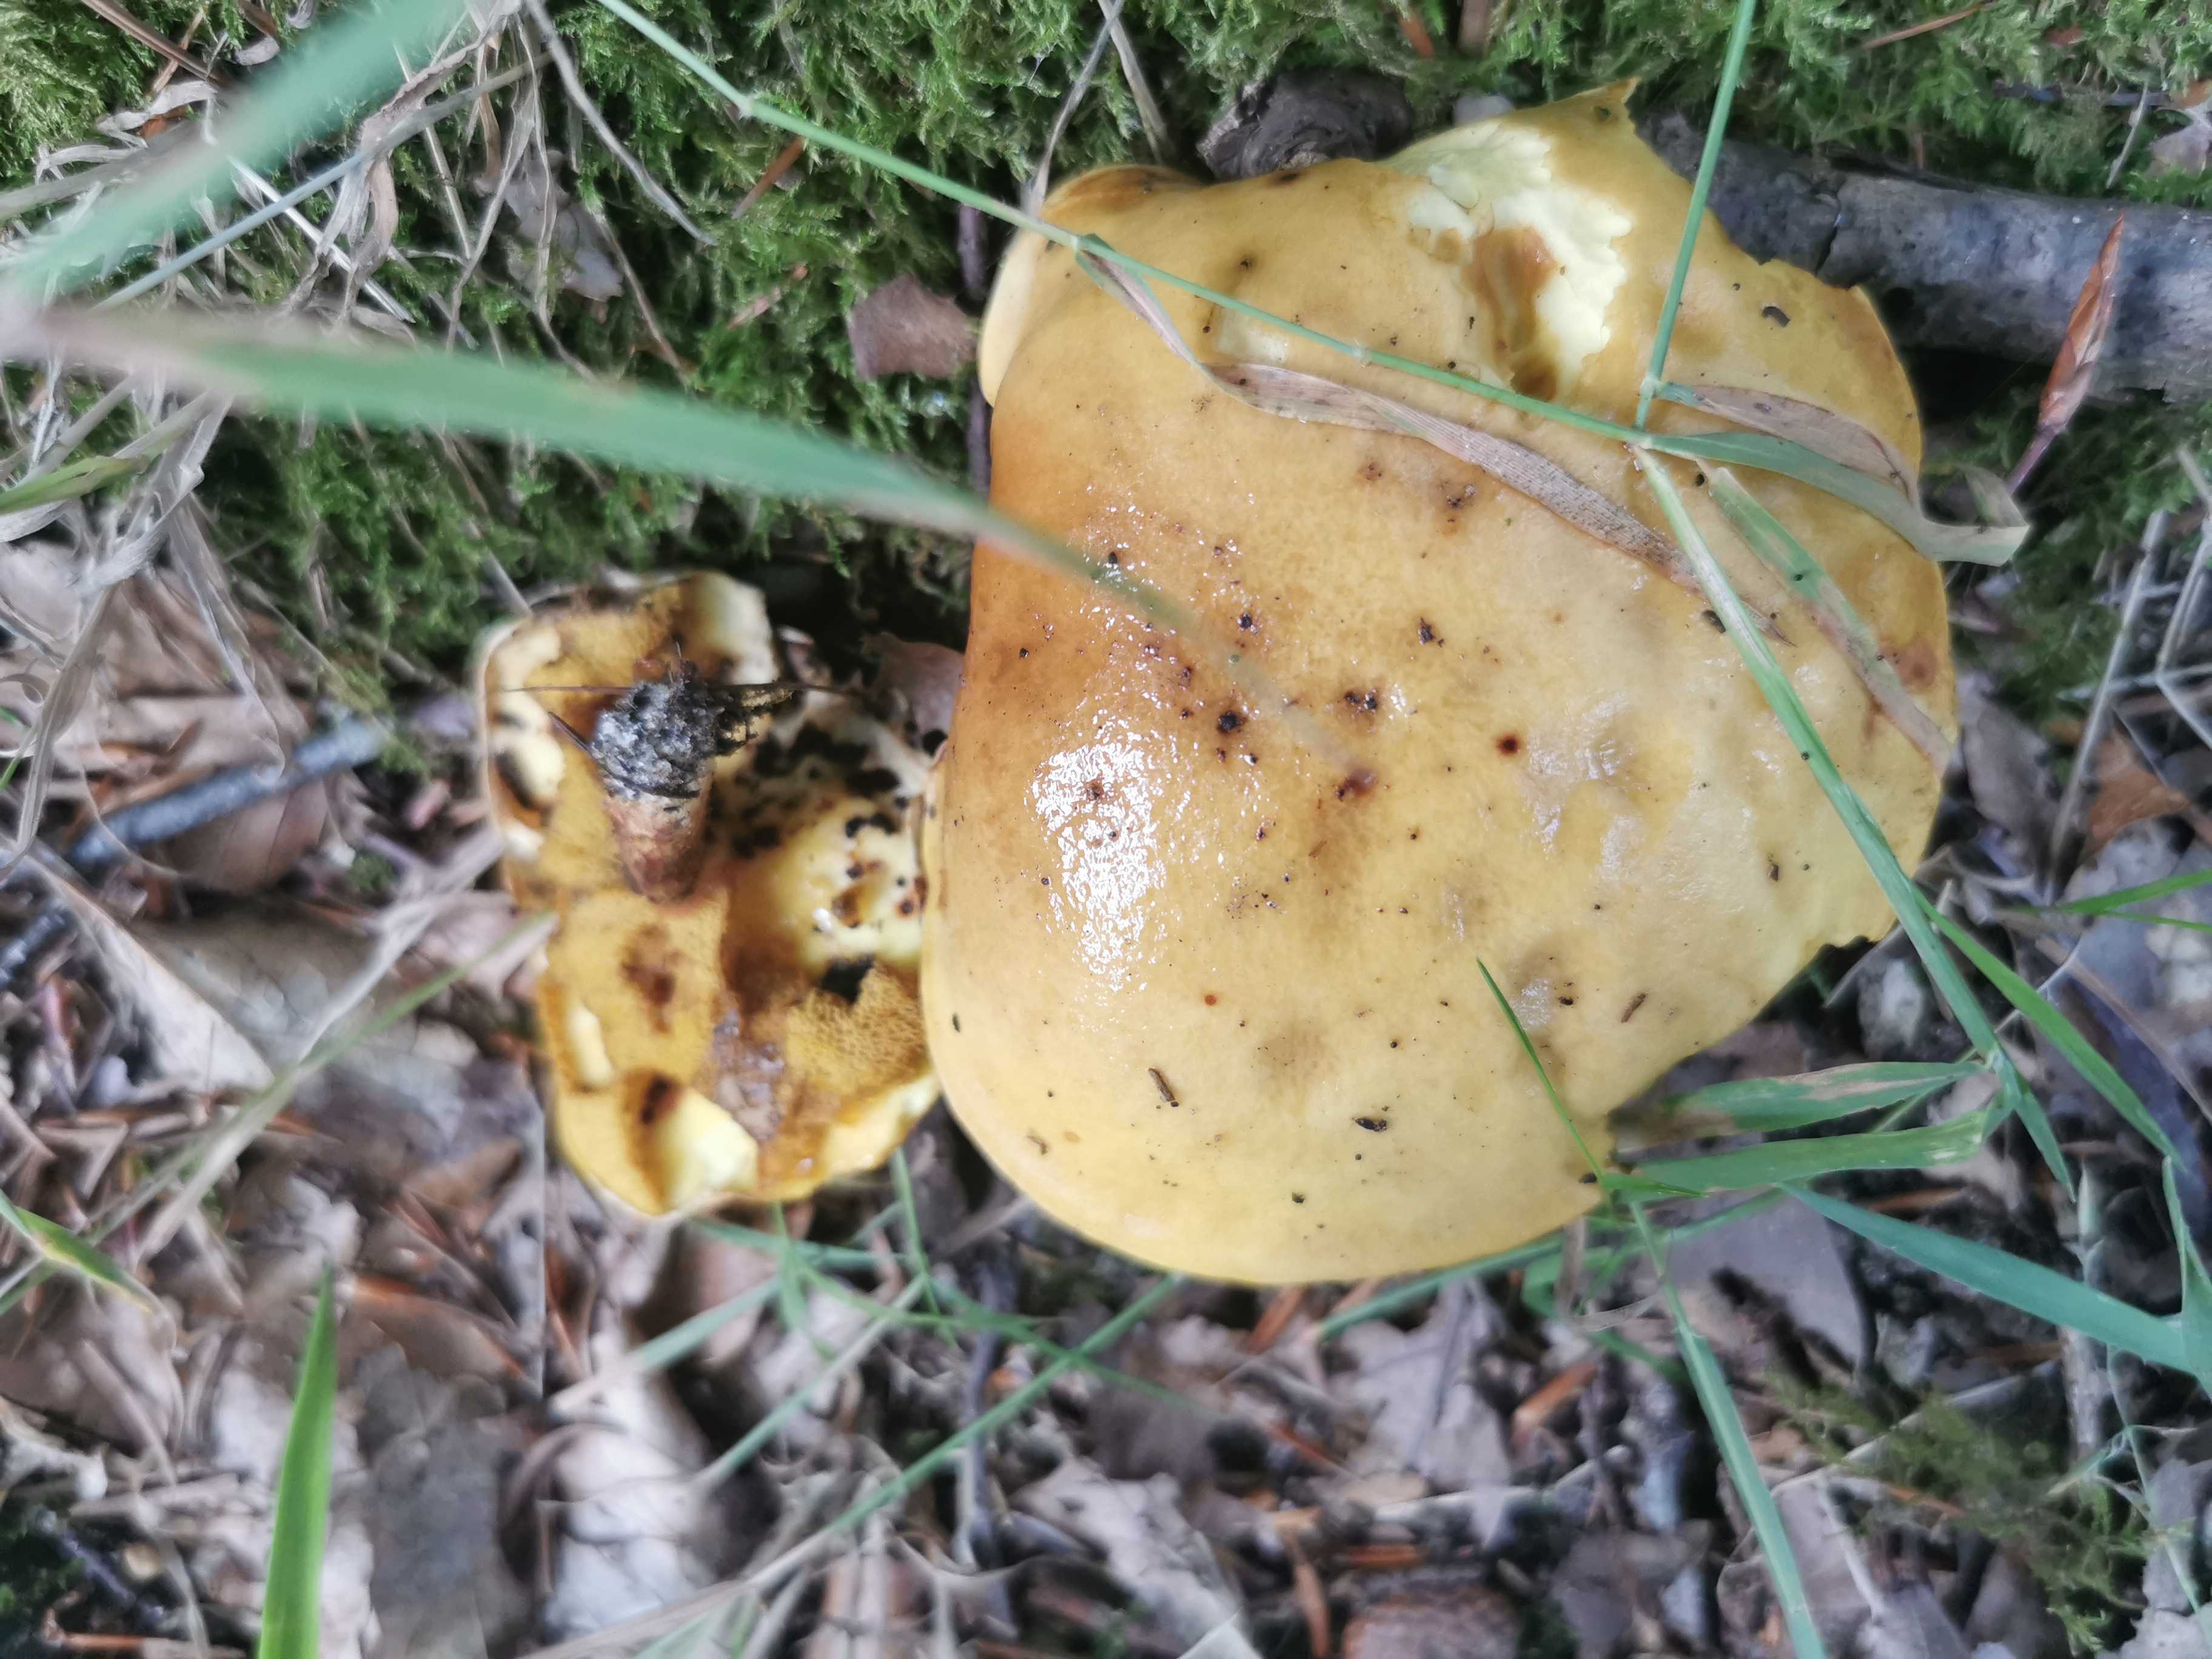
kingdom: Fungi
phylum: Basidiomycota
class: Agaricomycetes
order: Boletales
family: Suillaceae
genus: Suillus
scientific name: Suillus grevillei
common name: lærke-slimrørhat
